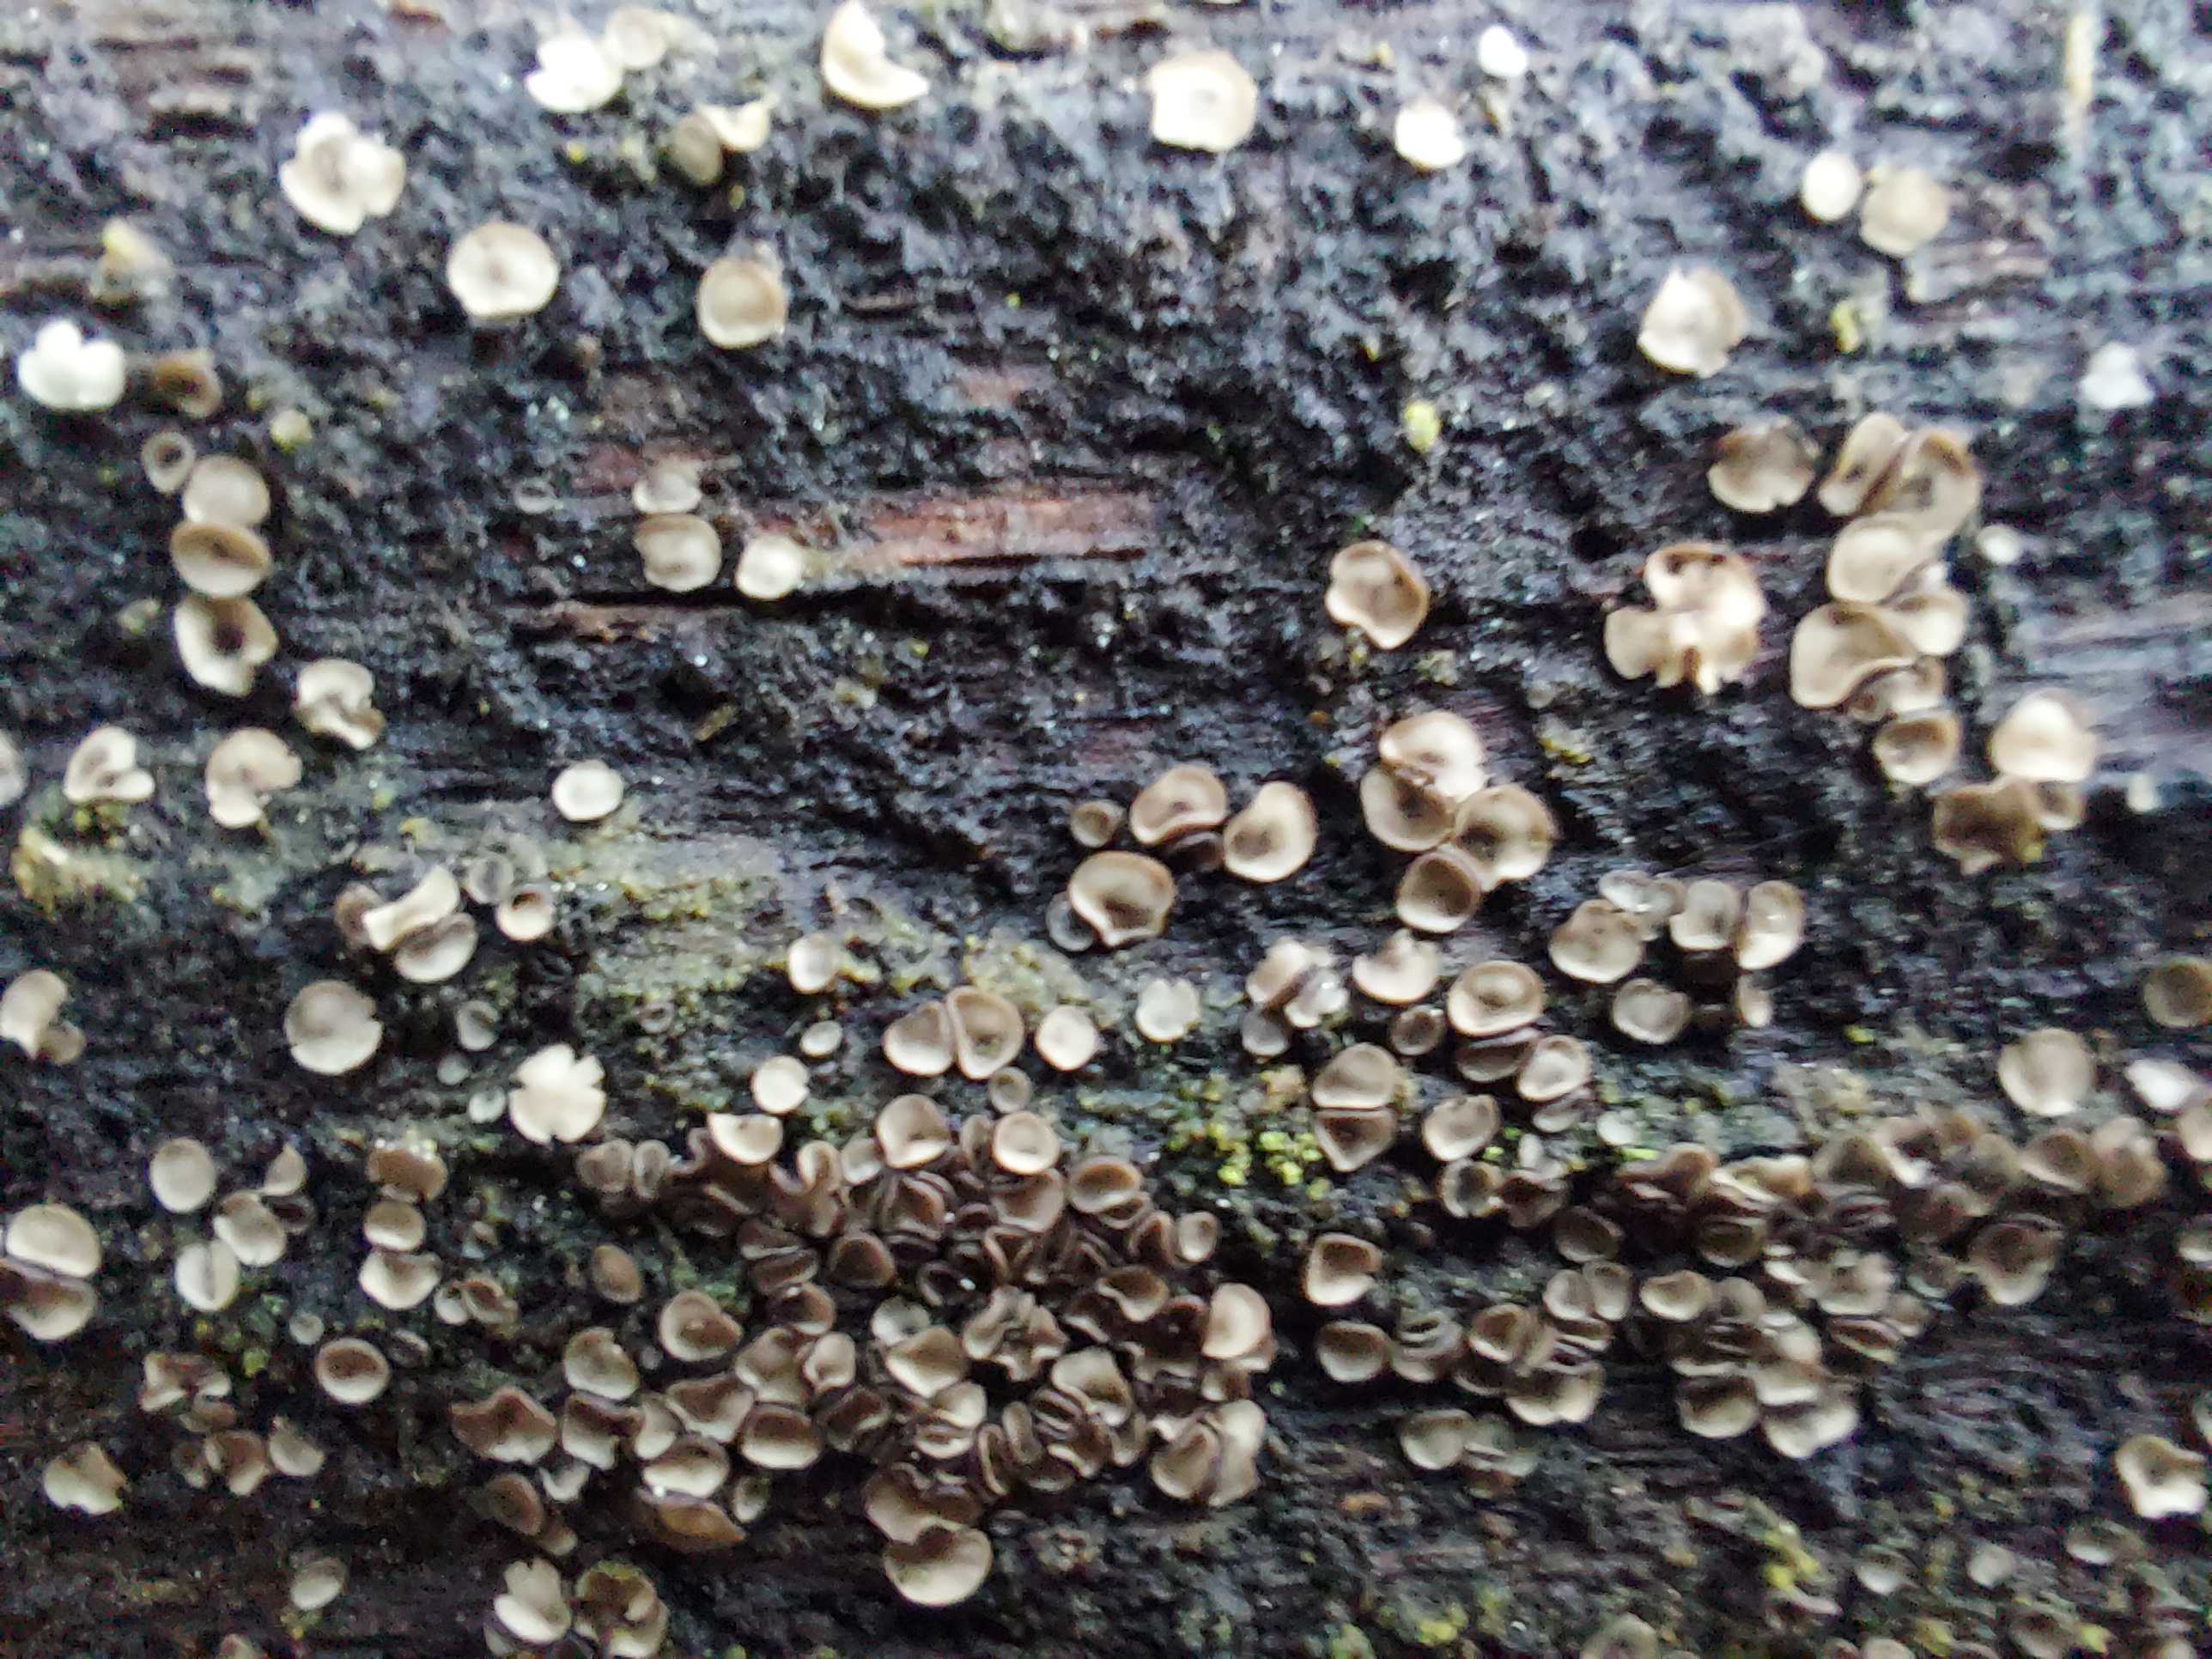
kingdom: Fungi
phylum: Ascomycota
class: Leotiomycetes
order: Helotiales
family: Mollisiaceae
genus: Mollisia
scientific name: Mollisia
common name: gråskive
